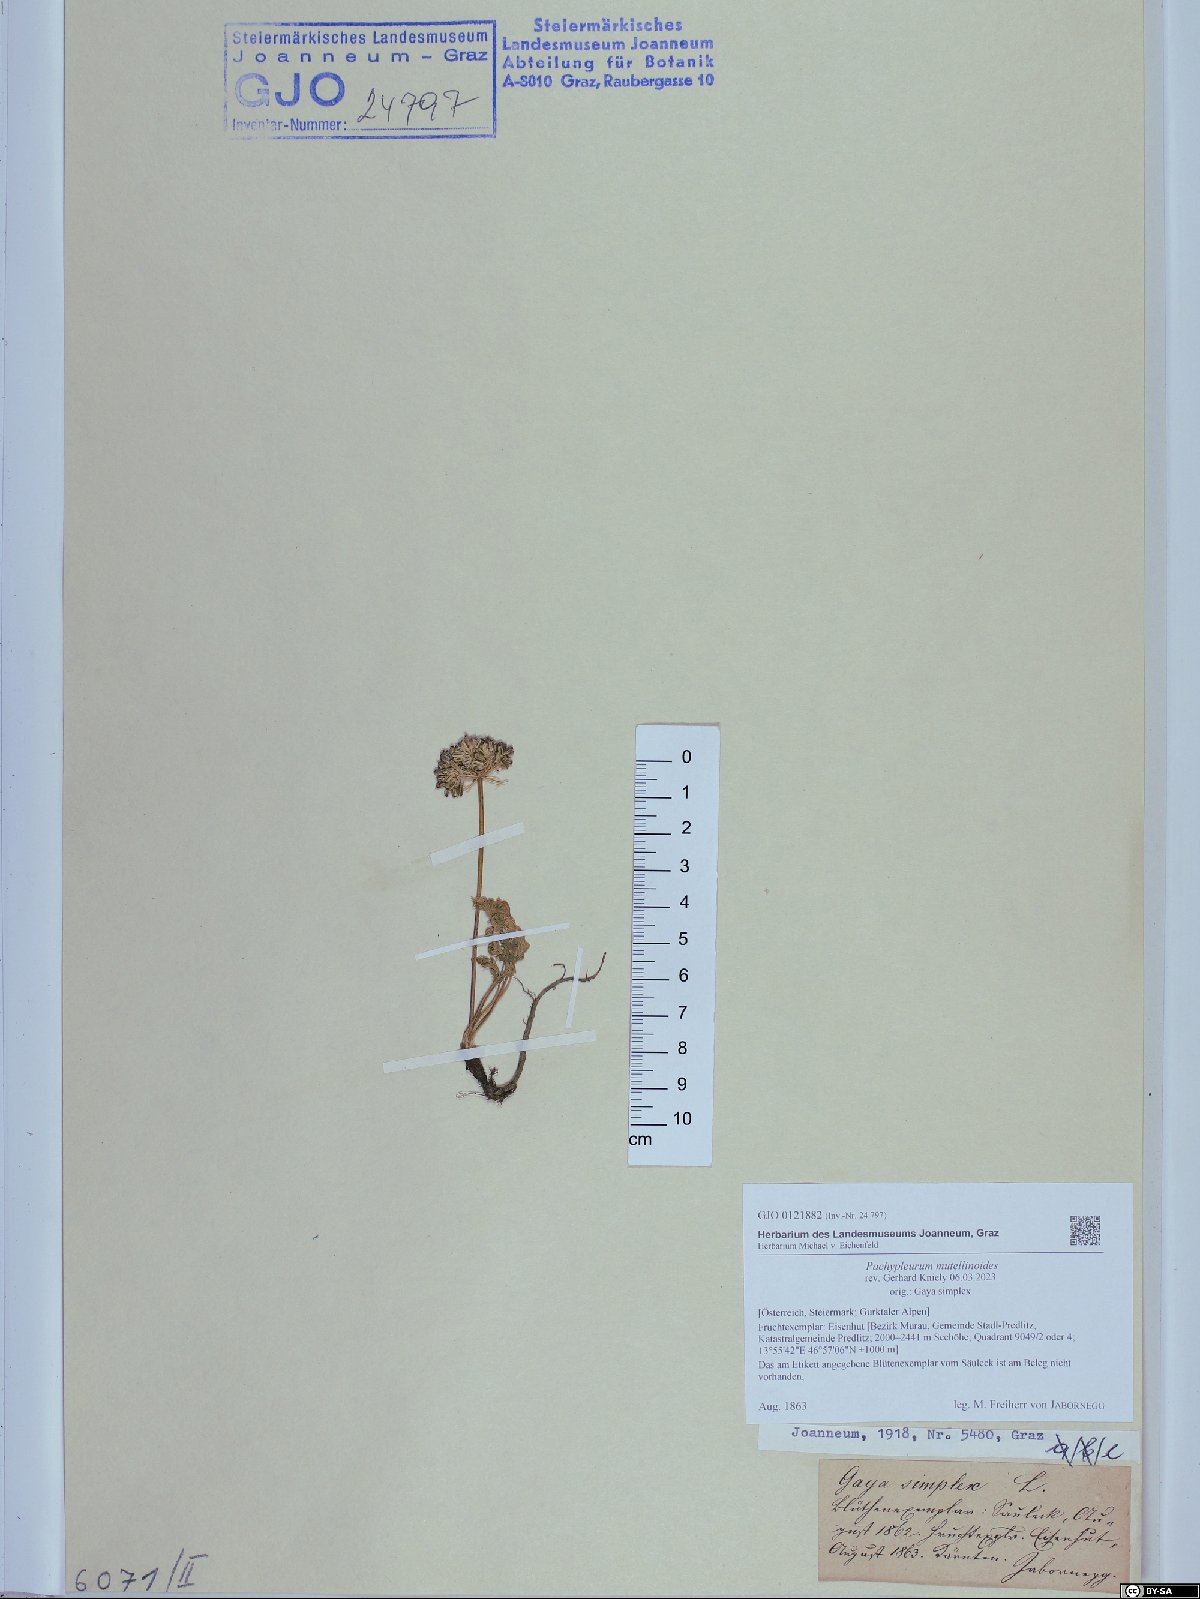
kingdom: Plantae
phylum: Tracheophyta
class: Magnoliopsida
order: Apiales
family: Apiaceae
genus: Pachypleurum
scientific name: Pachypleurum mutellinoides
